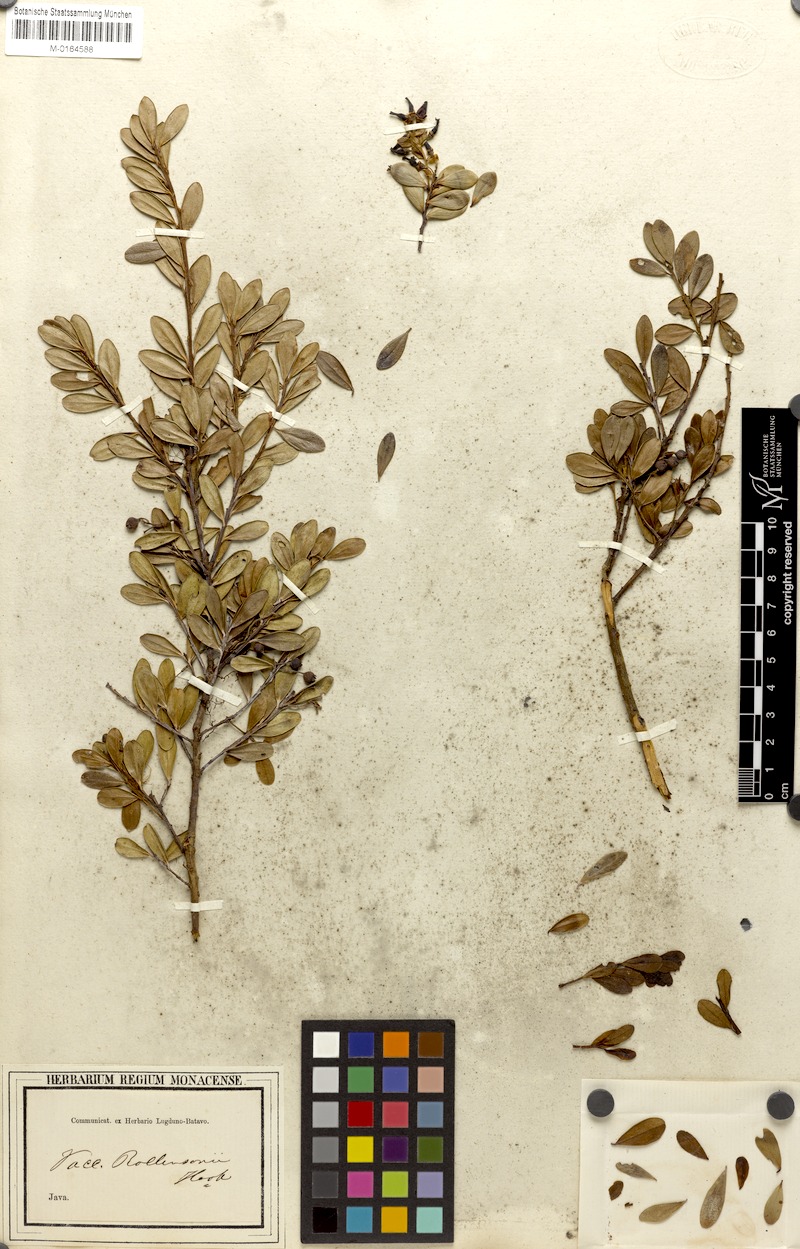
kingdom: Plantae
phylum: Tracheophyta
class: Magnoliopsida
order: Ericales
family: Ericaceae
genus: Vaccinium
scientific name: Vaccinium lucidum
